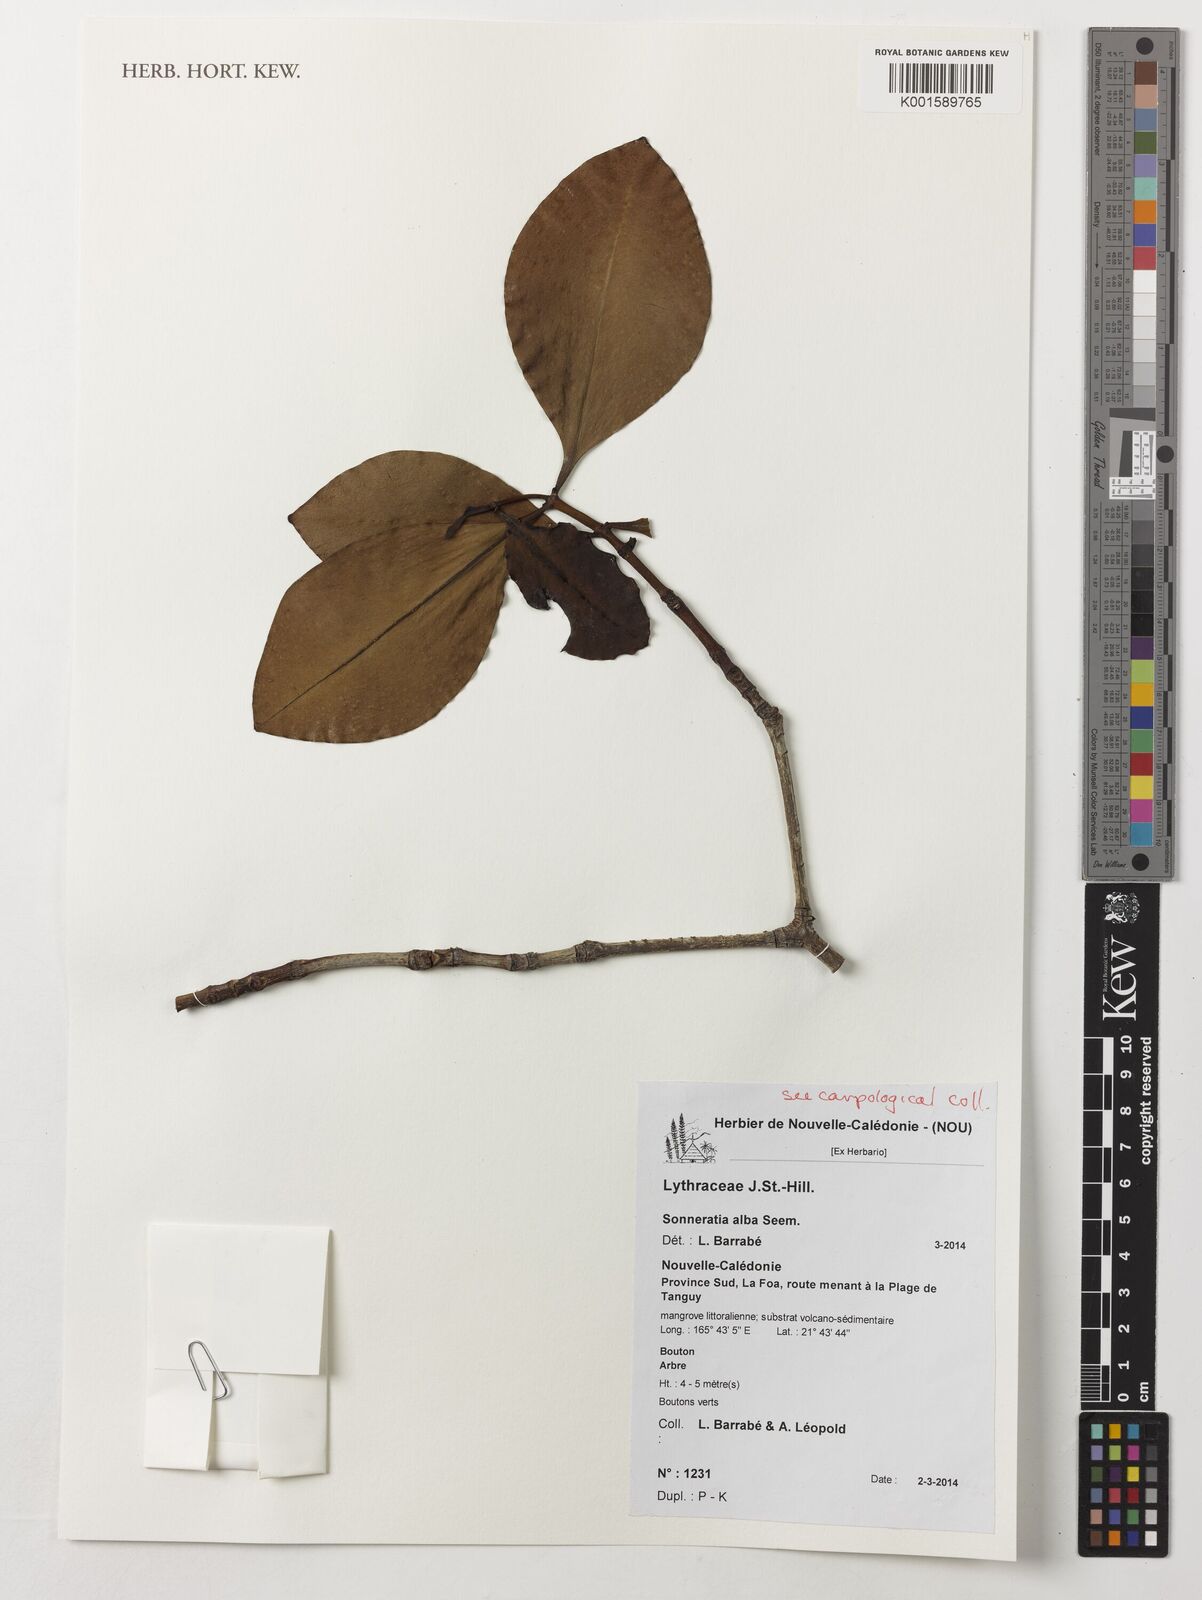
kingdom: Plantae
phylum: Tracheophyta
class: Magnoliopsida
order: Myrtales
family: Lythraceae
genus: Sonneratia
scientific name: Sonneratia griffithii
